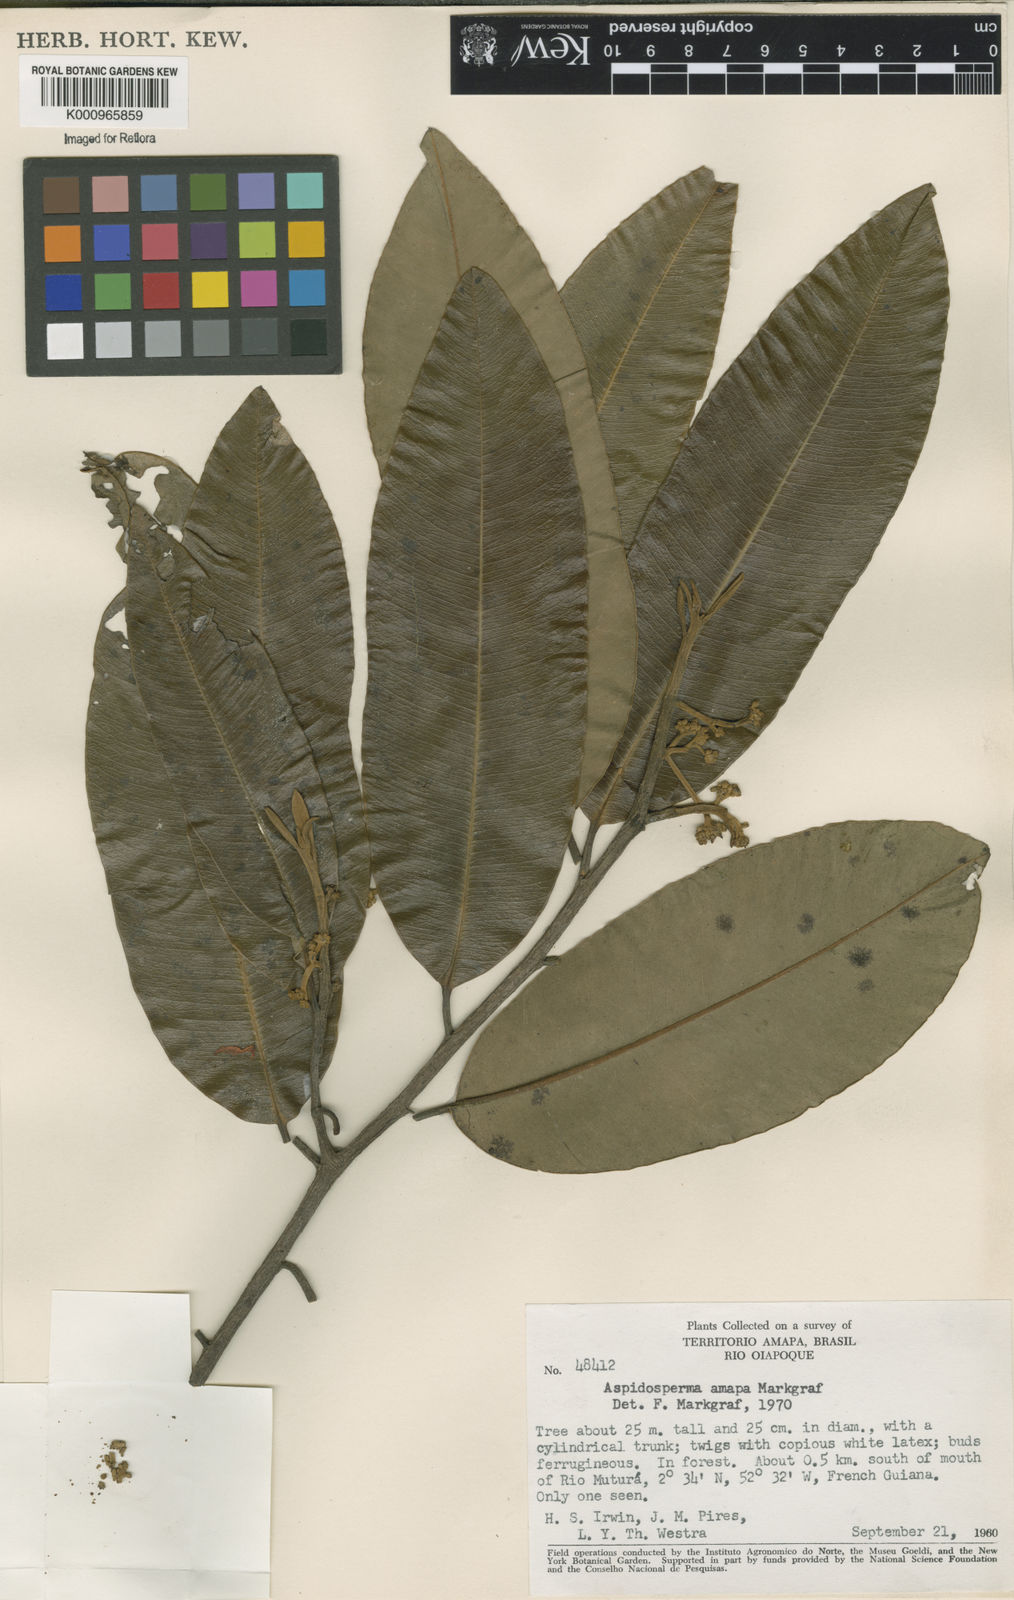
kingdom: Plantae
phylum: Tracheophyta
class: Magnoliopsida
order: Gentianales
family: Apocynaceae
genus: Aspidosperma
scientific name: Aspidosperma
